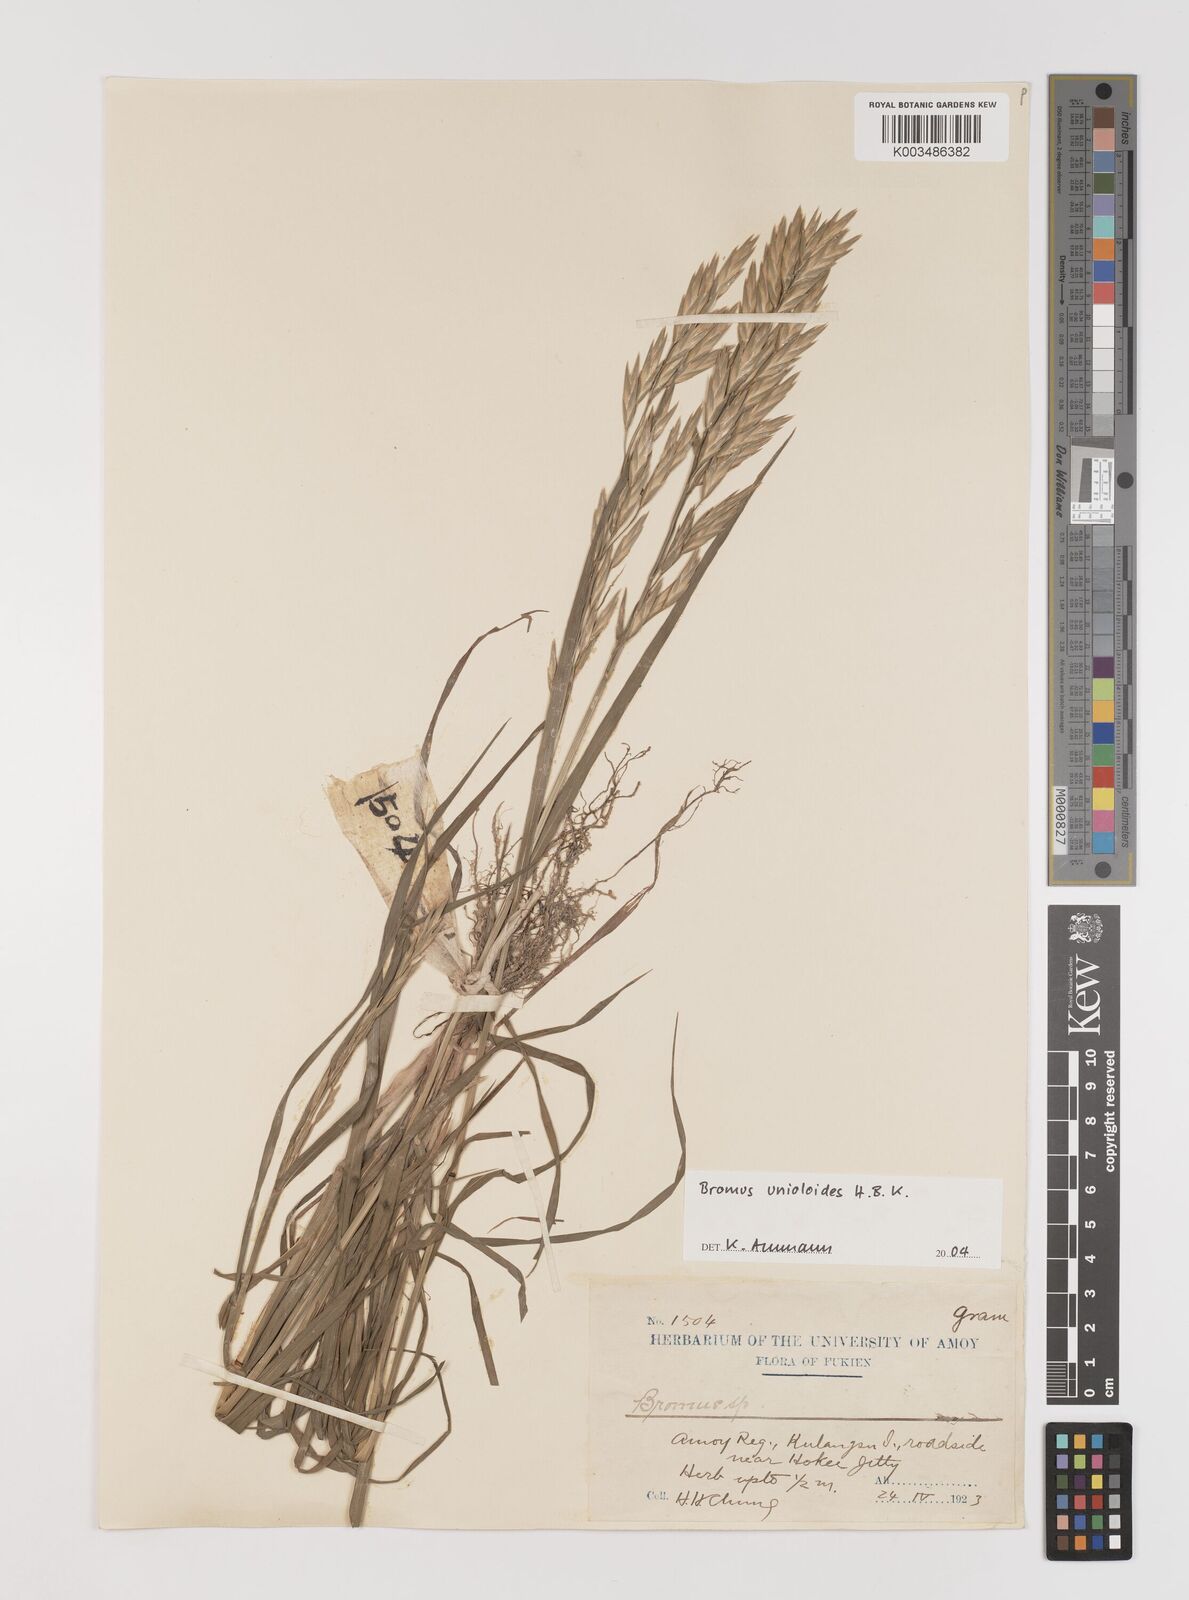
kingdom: Plantae
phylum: Tracheophyta
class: Liliopsida
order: Poales
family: Poaceae
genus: Bromus
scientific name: Bromus catharticus
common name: Rescuegrass
